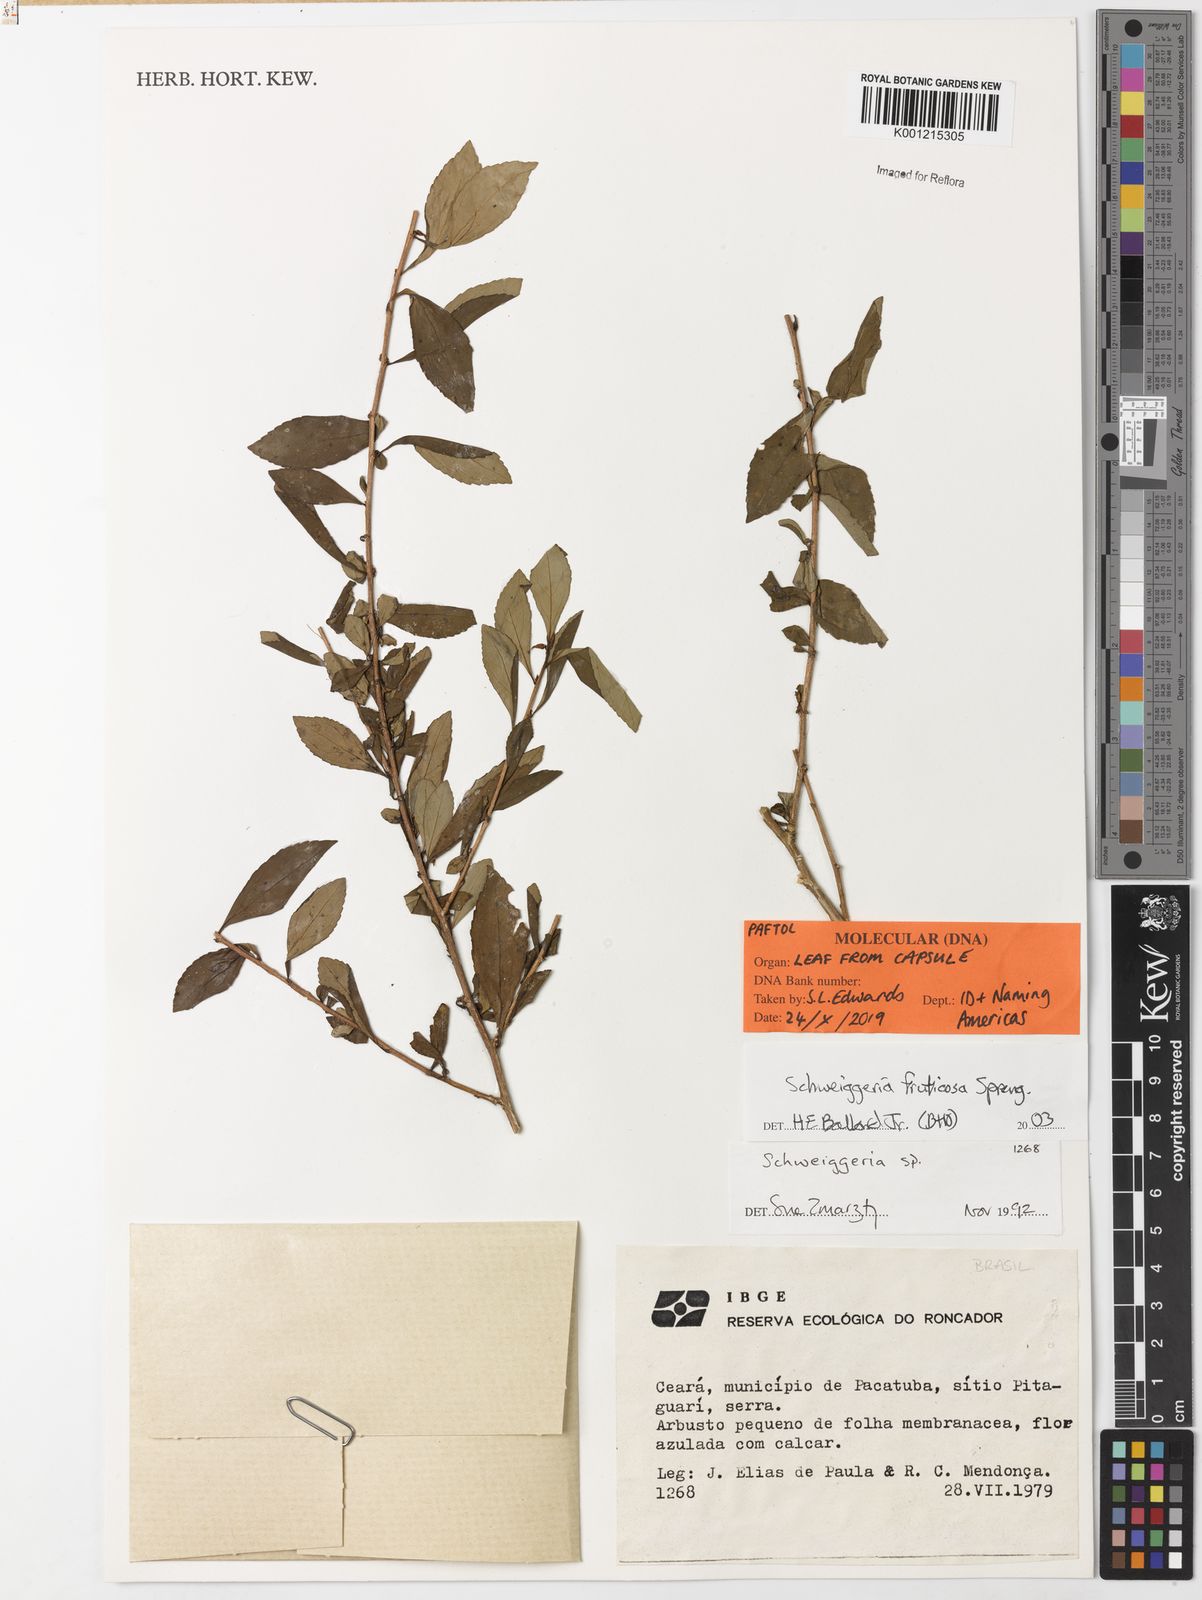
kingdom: Plantae
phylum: Tracheophyta
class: Magnoliopsida
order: Malpighiales
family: Violaceae
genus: Schweiggeria
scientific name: Schweiggeria fruticosa
